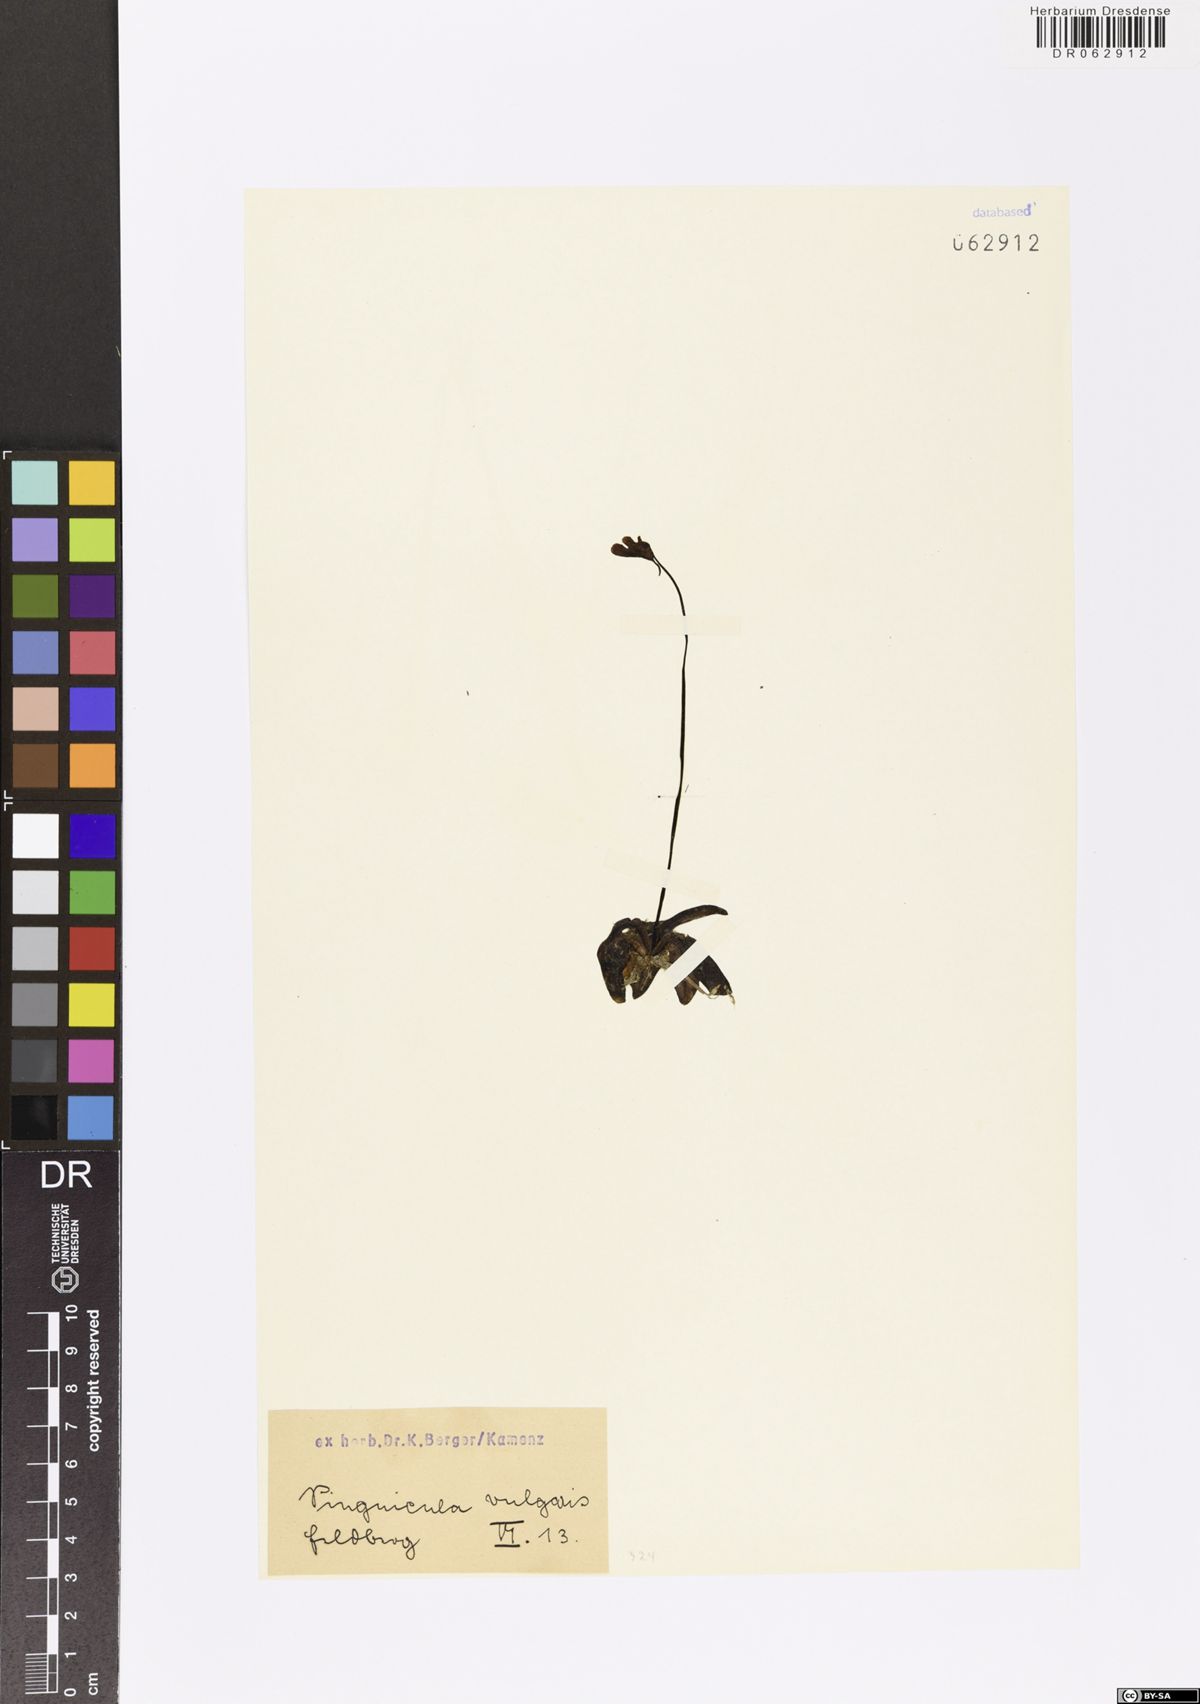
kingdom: Plantae
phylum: Tracheophyta
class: Magnoliopsida
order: Lamiales
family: Lentibulariaceae
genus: Pinguicula
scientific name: Pinguicula vulgaris
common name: Common butterwort
